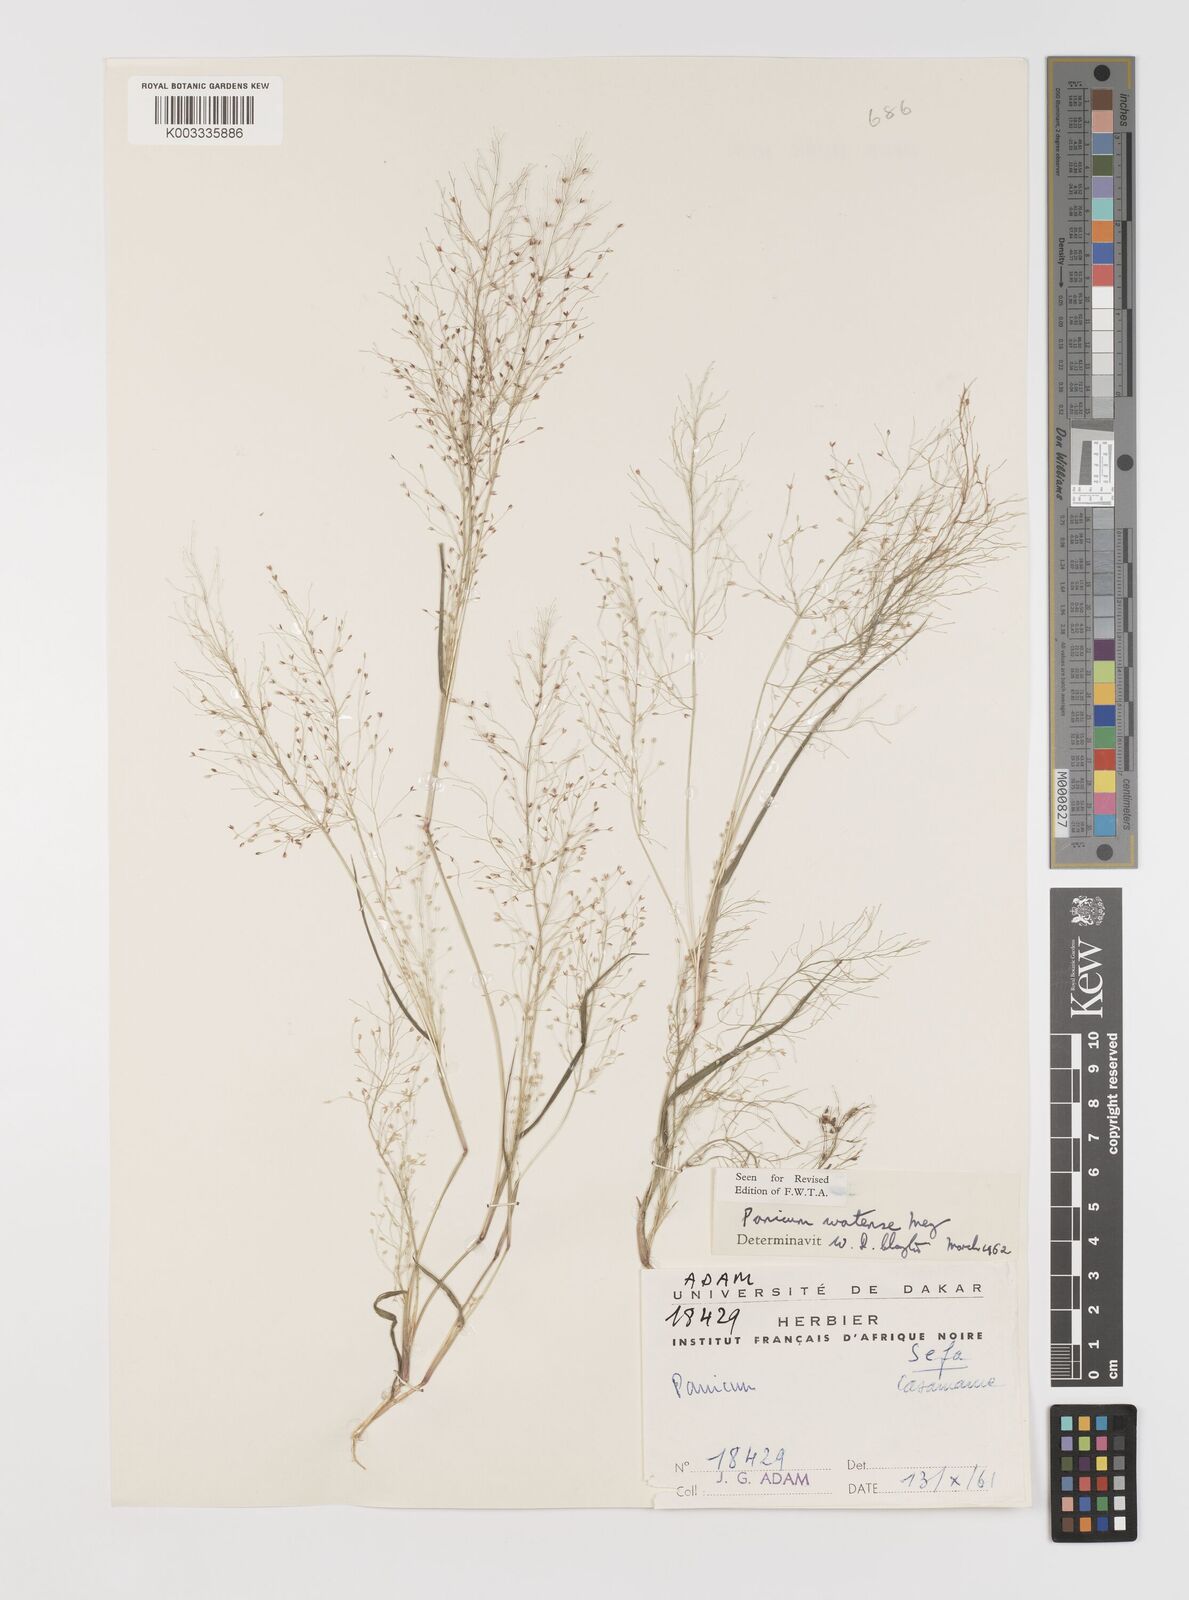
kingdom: Plantae
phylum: Tracheophyta
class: Liliopsida
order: Poales
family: Poaceae
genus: Panicum
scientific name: Panicum humile
